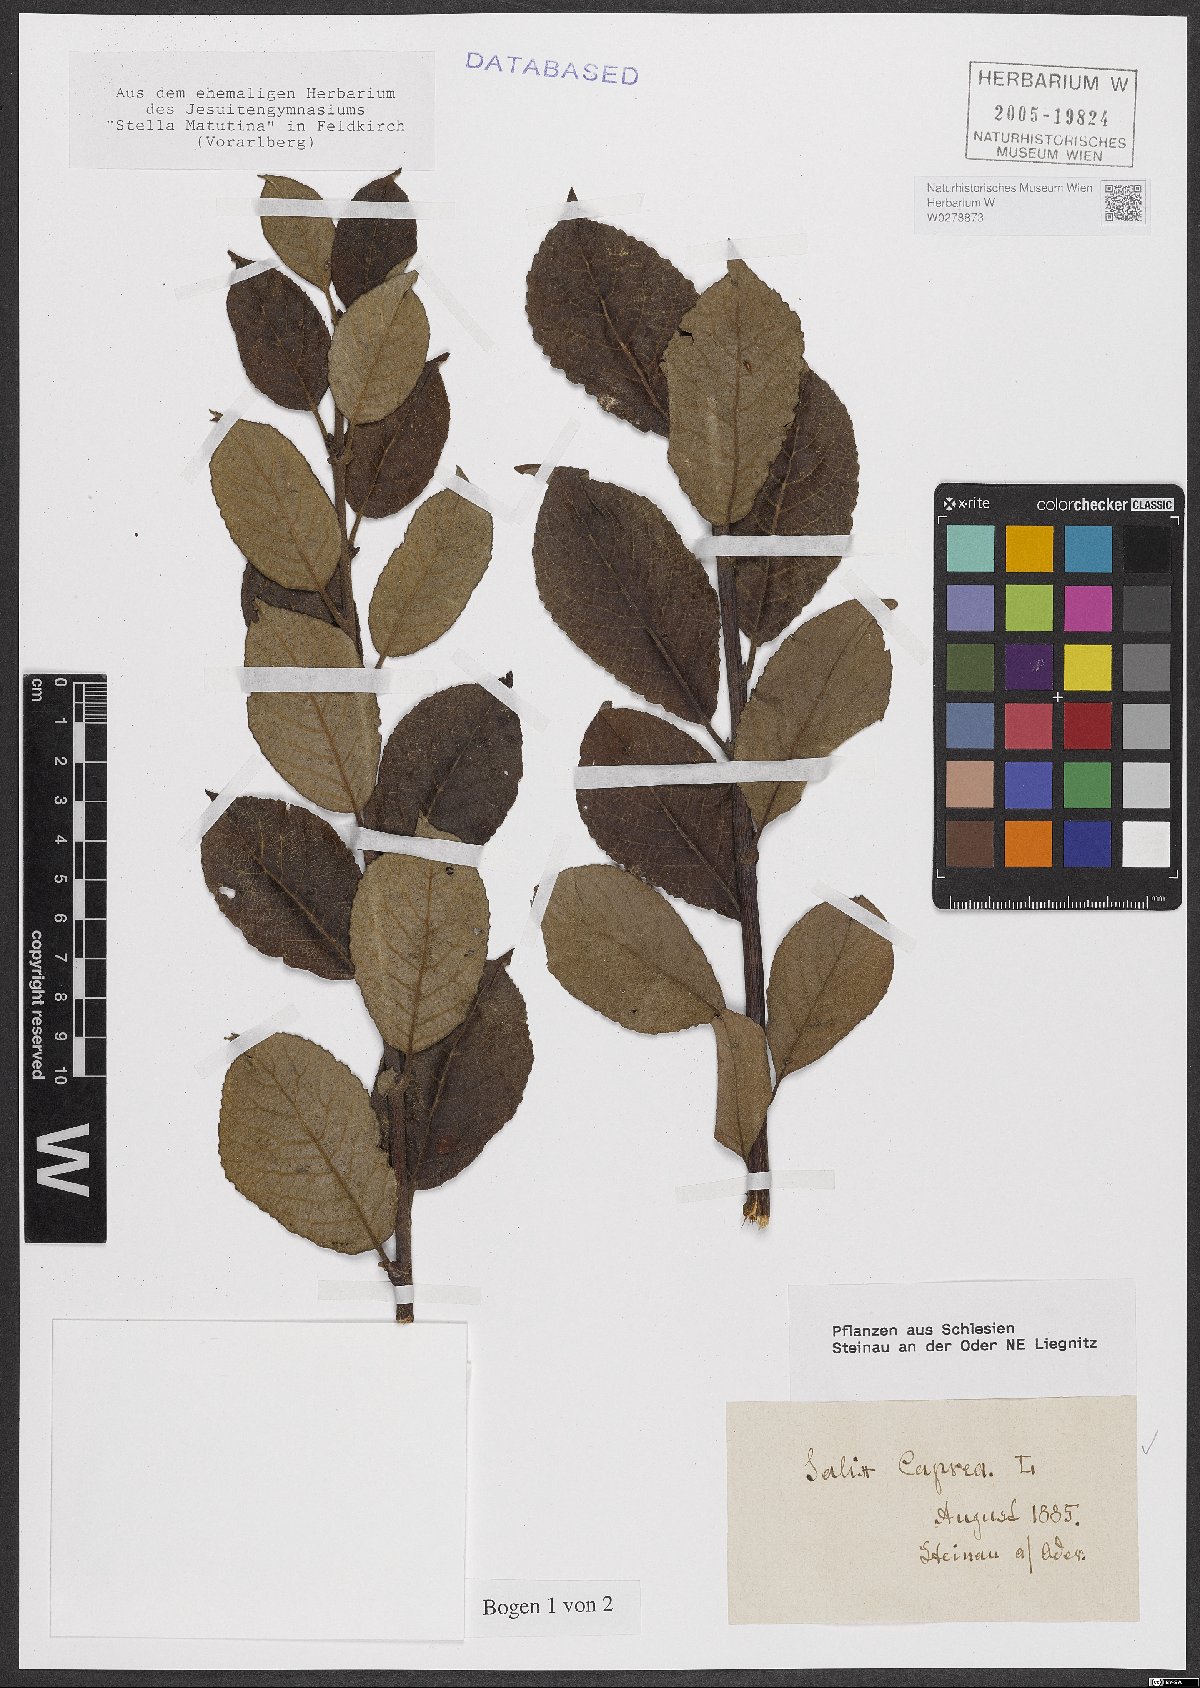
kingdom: Plantae
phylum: Tracheophyta
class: Magnoliopsida
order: Malpighiales
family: Salicaceae
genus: Salix
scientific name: Salix caprea
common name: Goat willow
